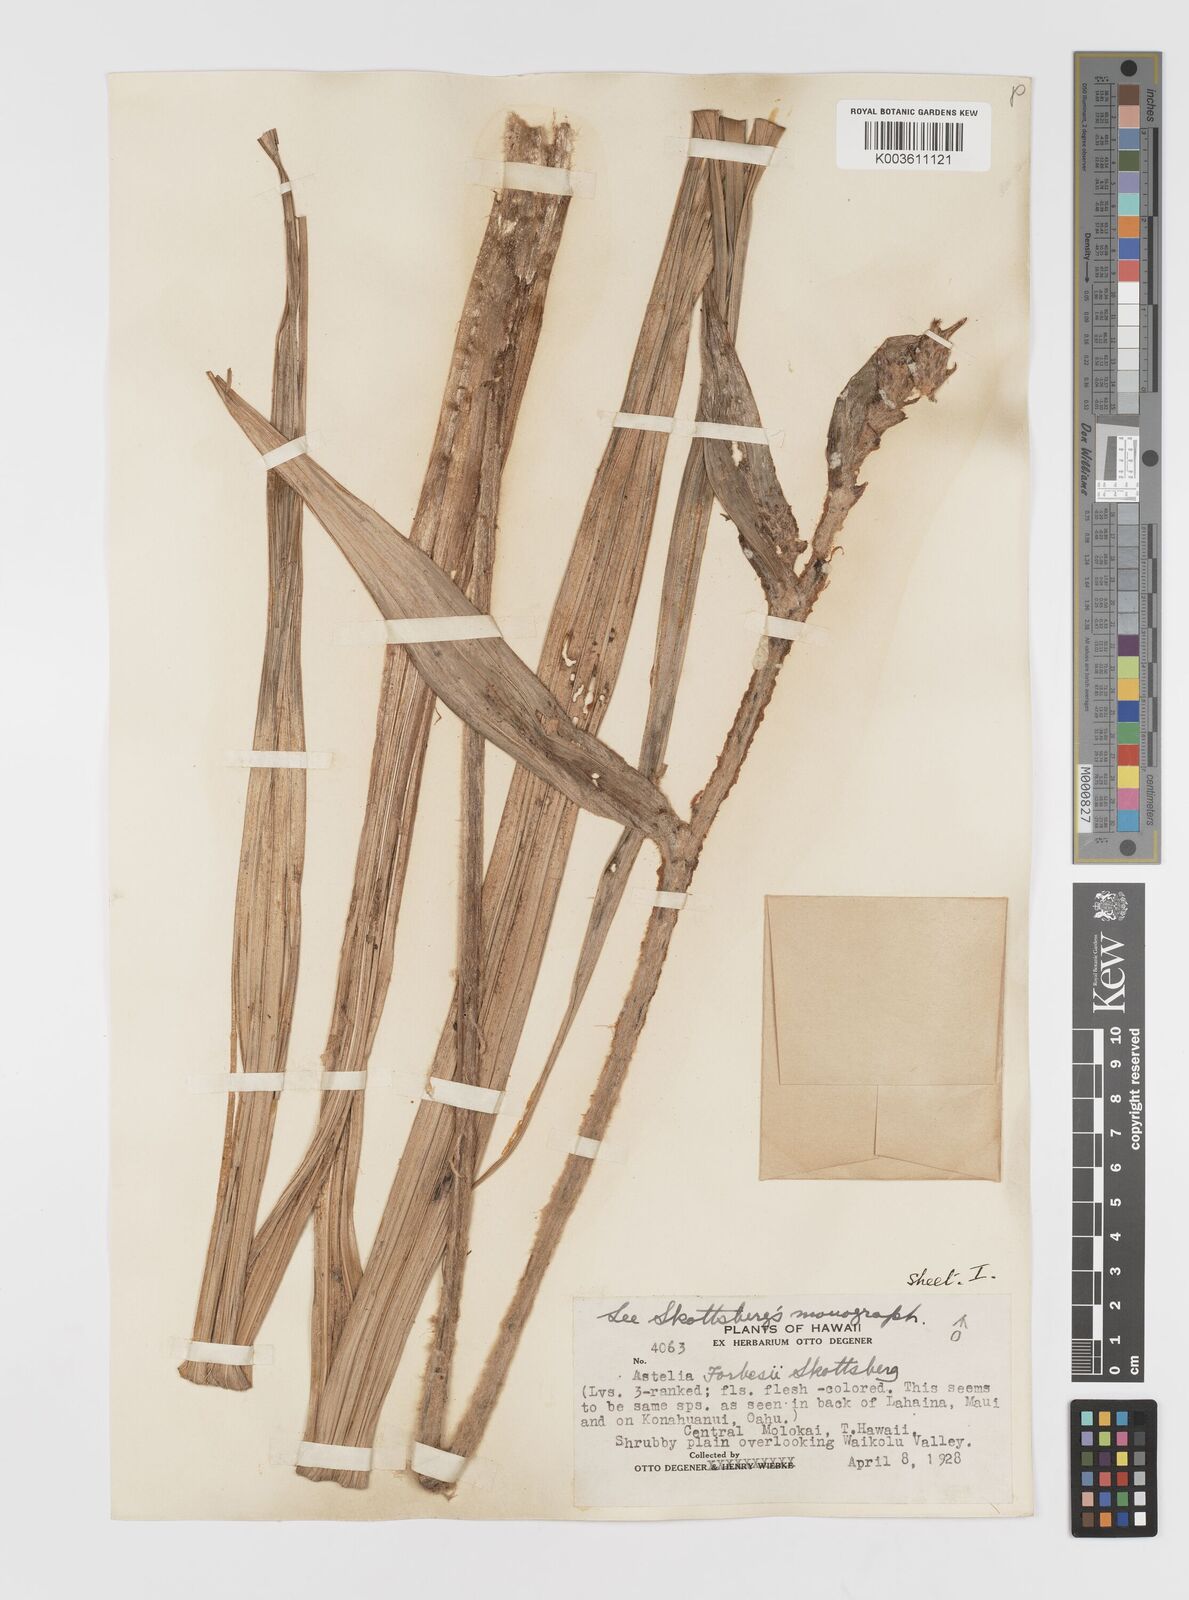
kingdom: Plantae
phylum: Tracheophyta
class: Liliopsida
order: Asparagales
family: Asteliaceae
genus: Astelia
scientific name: Astelia menziesiana
